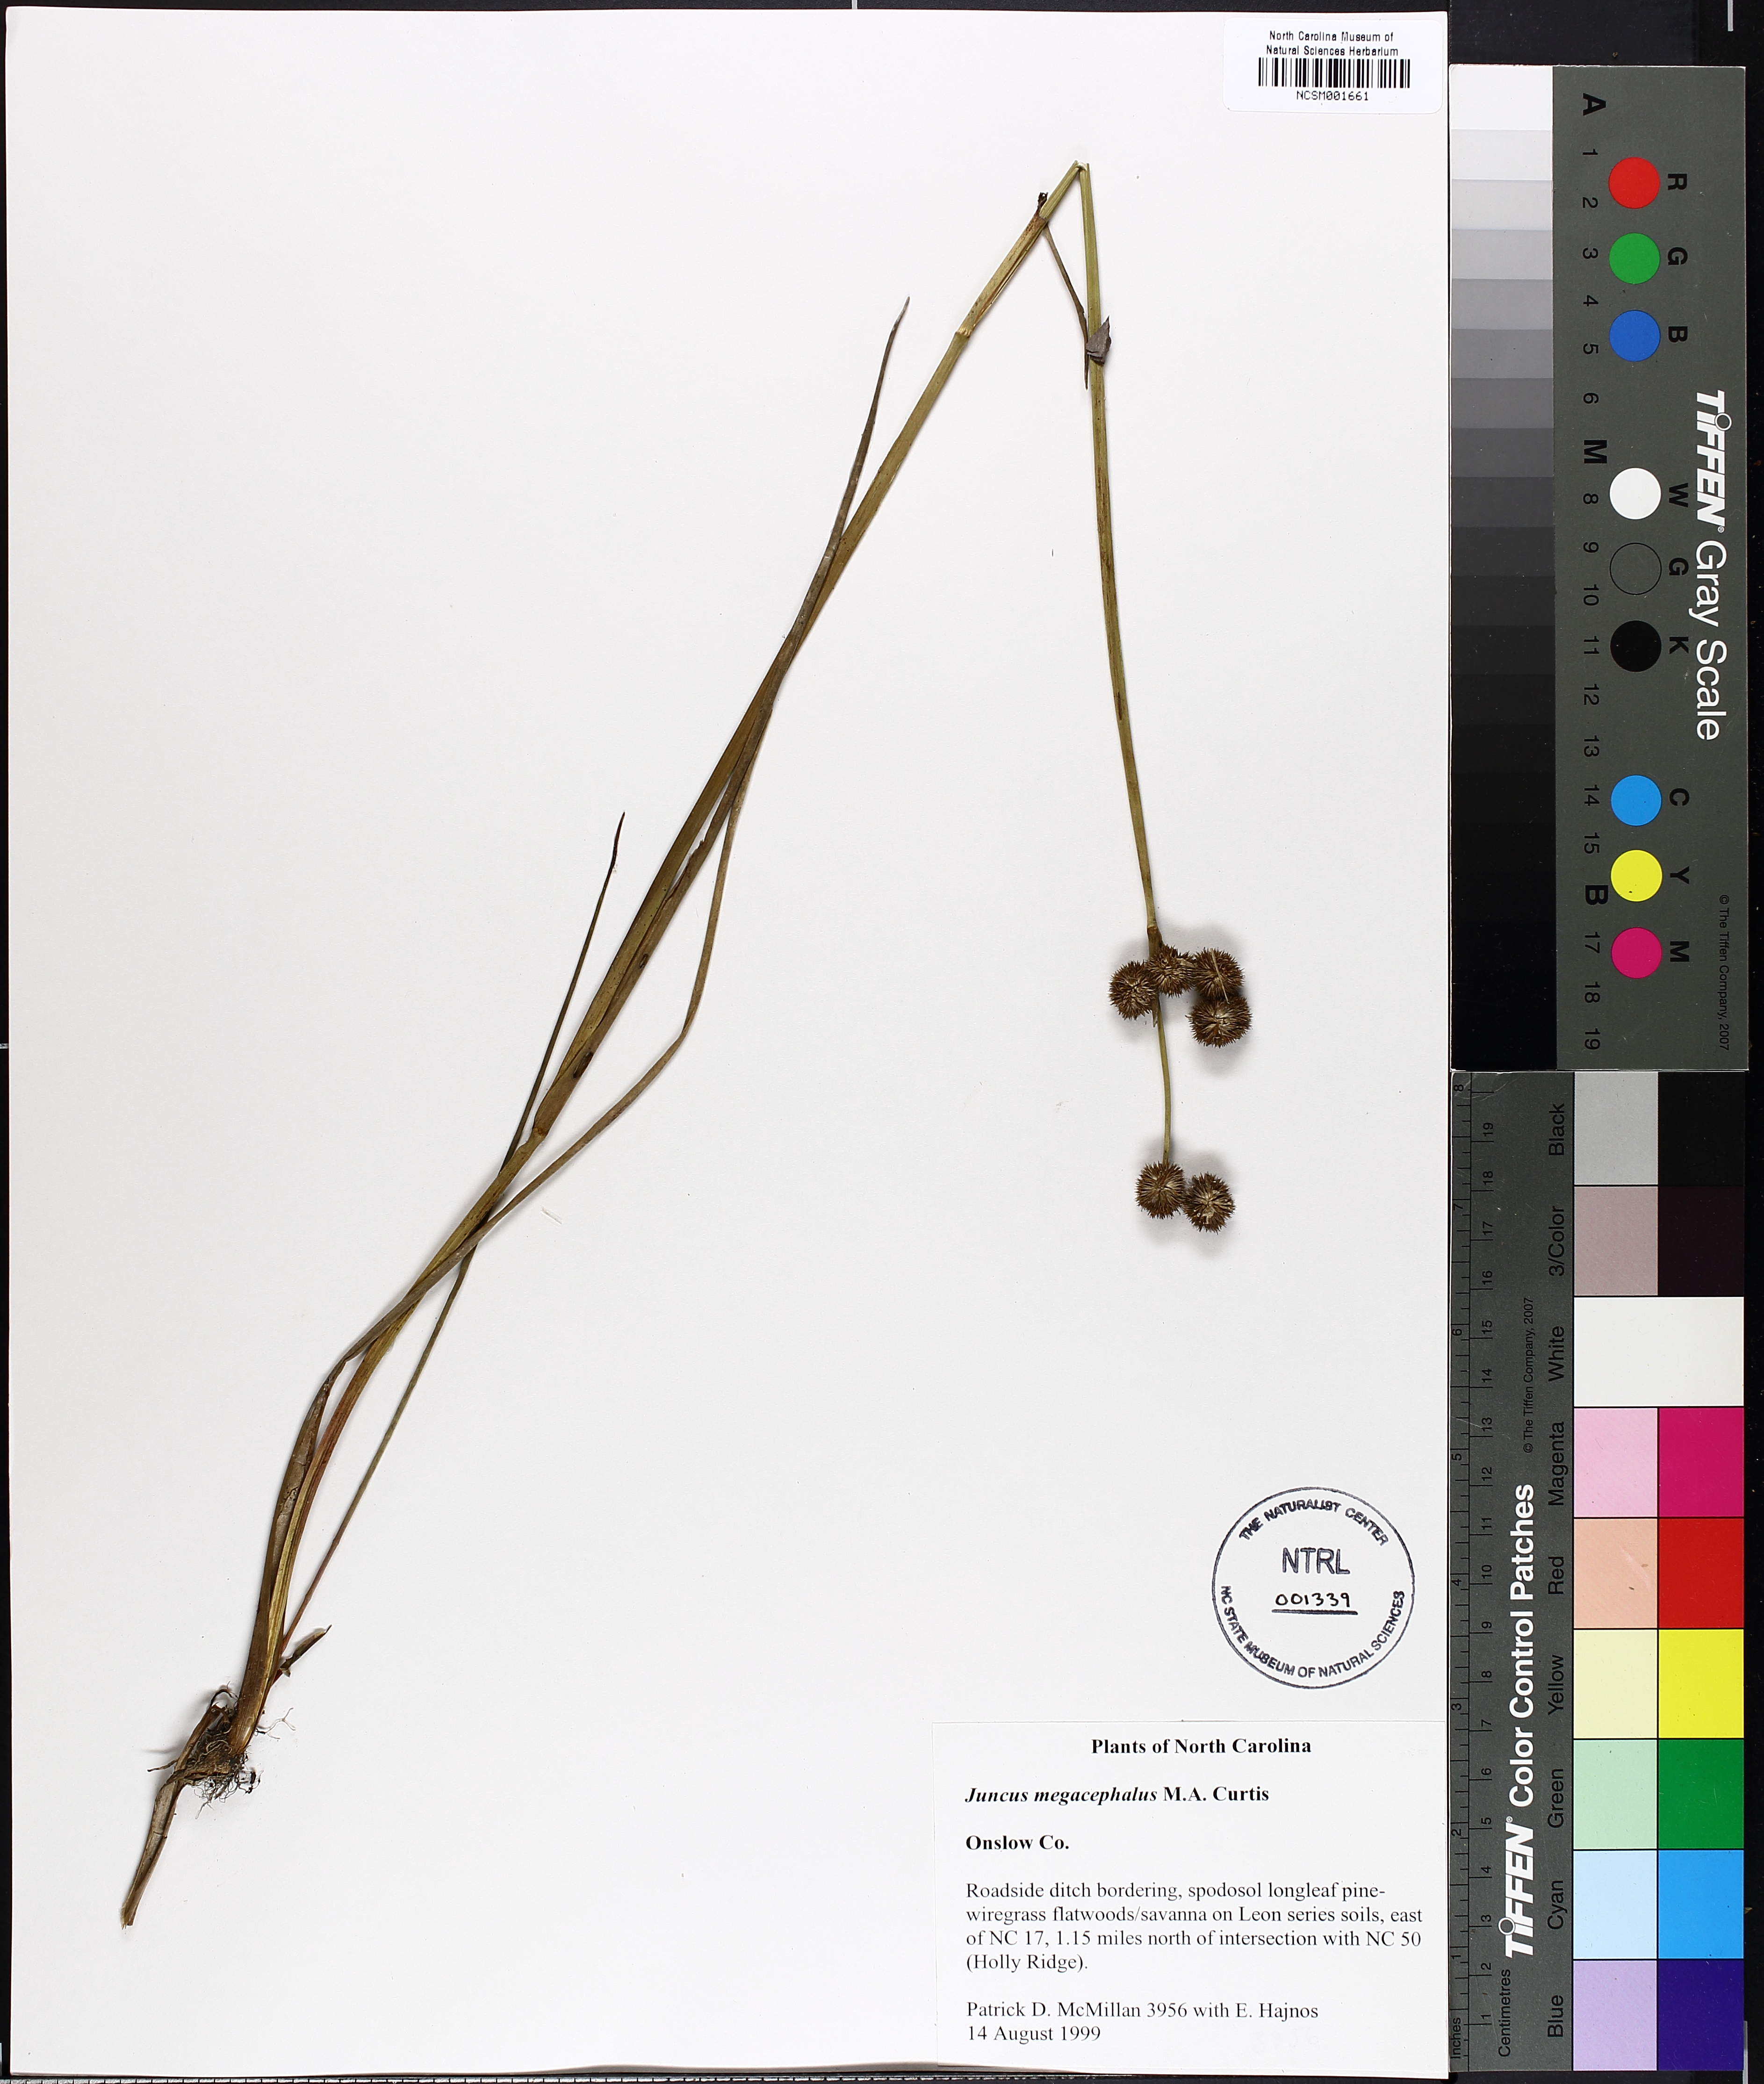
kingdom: Plantae
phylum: Tracheophyta
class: Liliopsida
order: Poales
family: Juncaceae
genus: Juncus
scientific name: Juncus megacephalus
